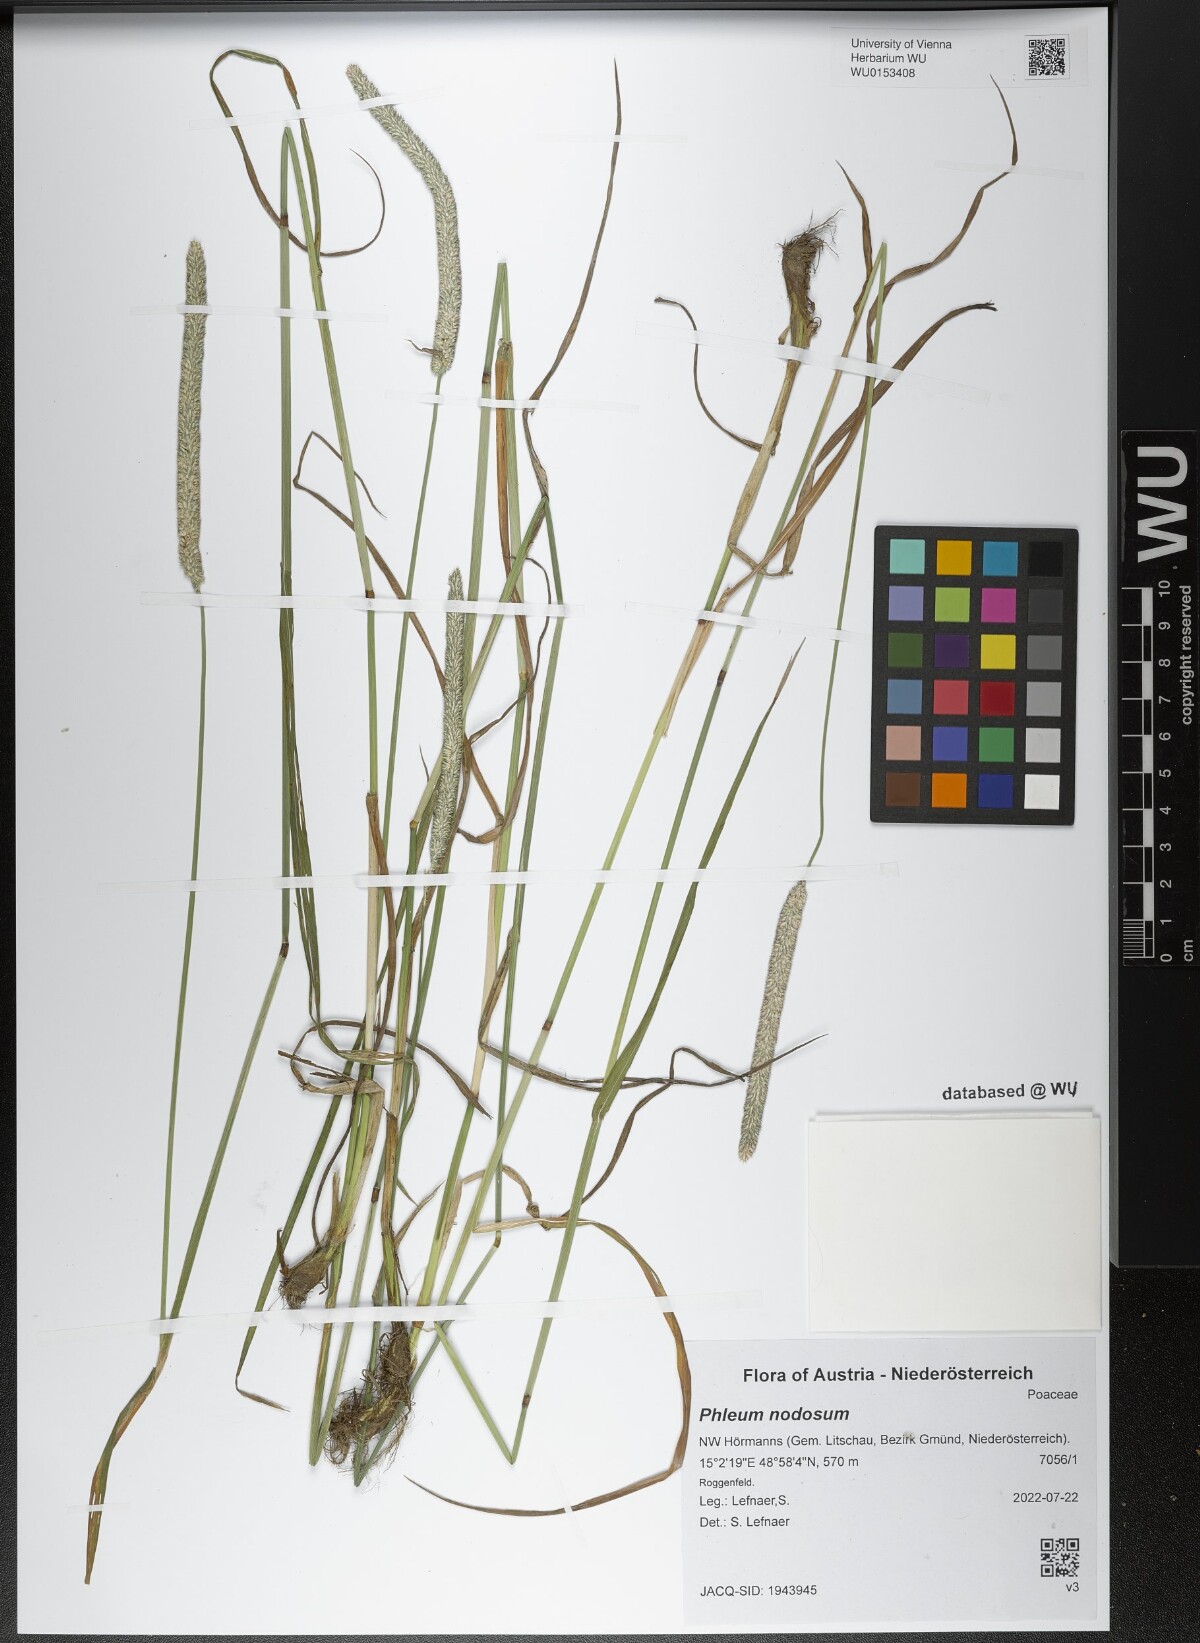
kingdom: Plantae
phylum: Tracheophyta
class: Liliopsida
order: Poales
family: Poaceae
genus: Phleum
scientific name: Phleum pratense
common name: Timothy grass
